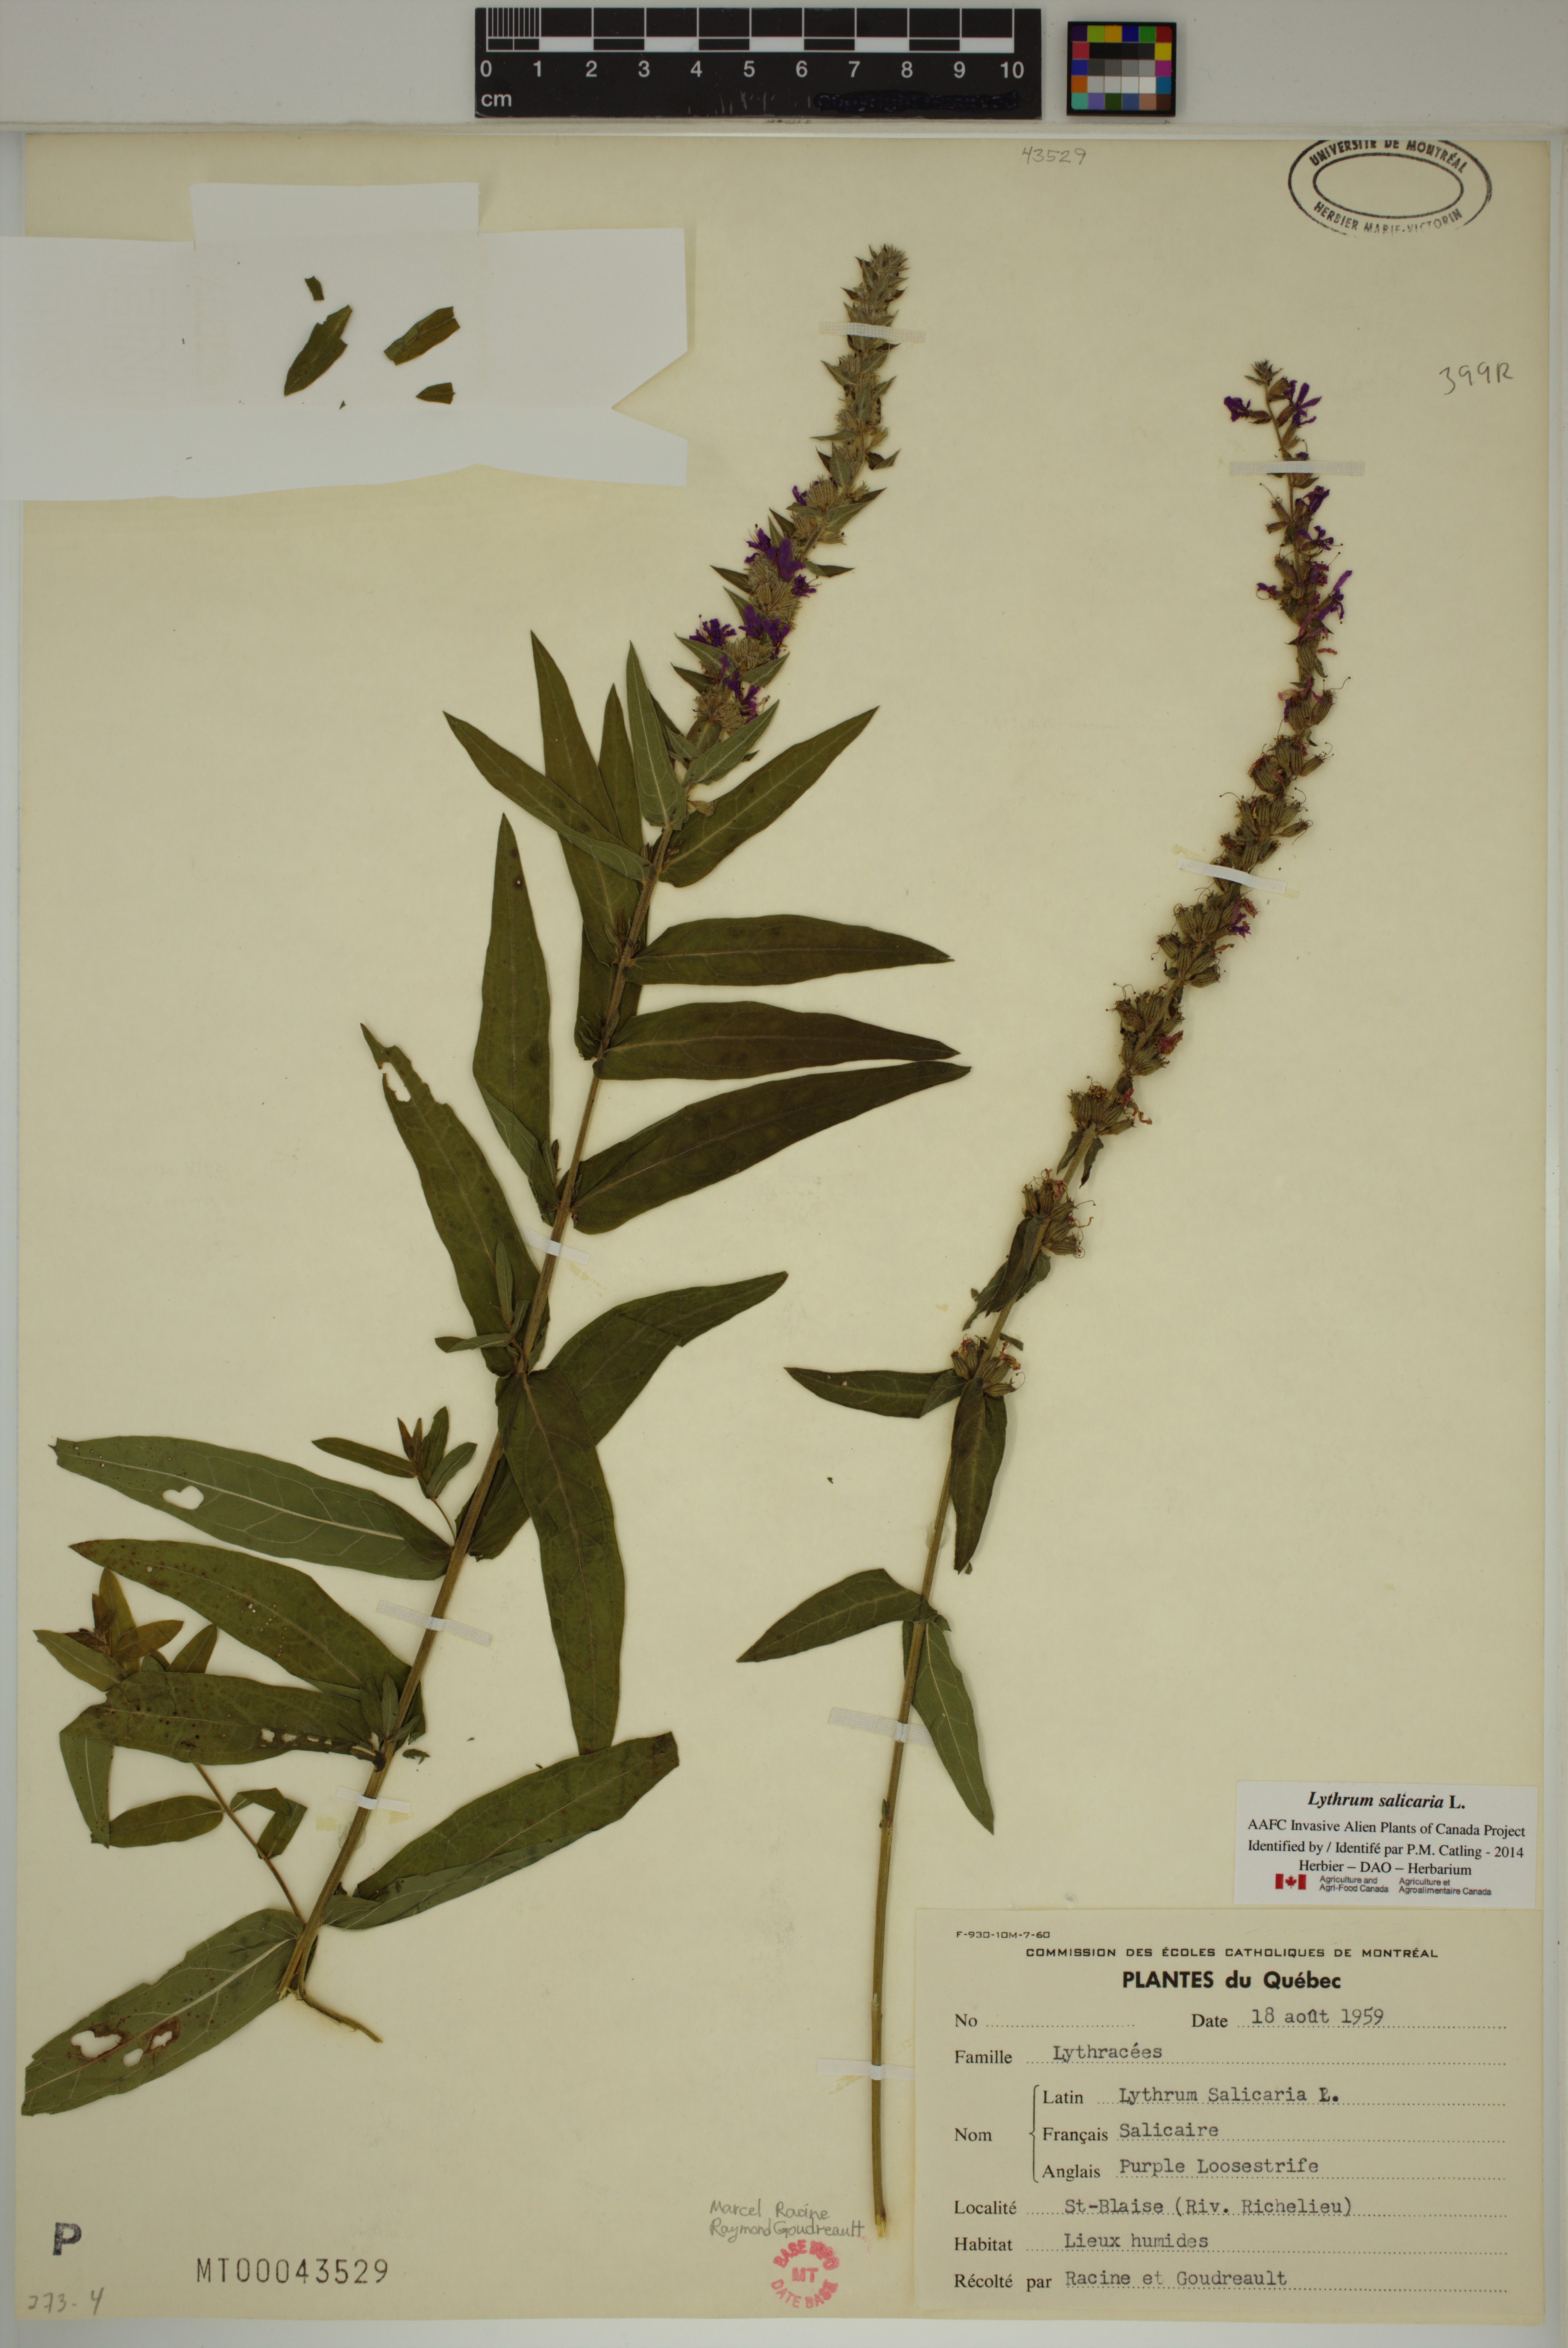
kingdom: Plantae
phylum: Tracheophyta
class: Magnoliopsida
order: Myrtales
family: Lythraceae
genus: Lythrum
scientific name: Lythrum salicaria
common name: Purple loosestrife
